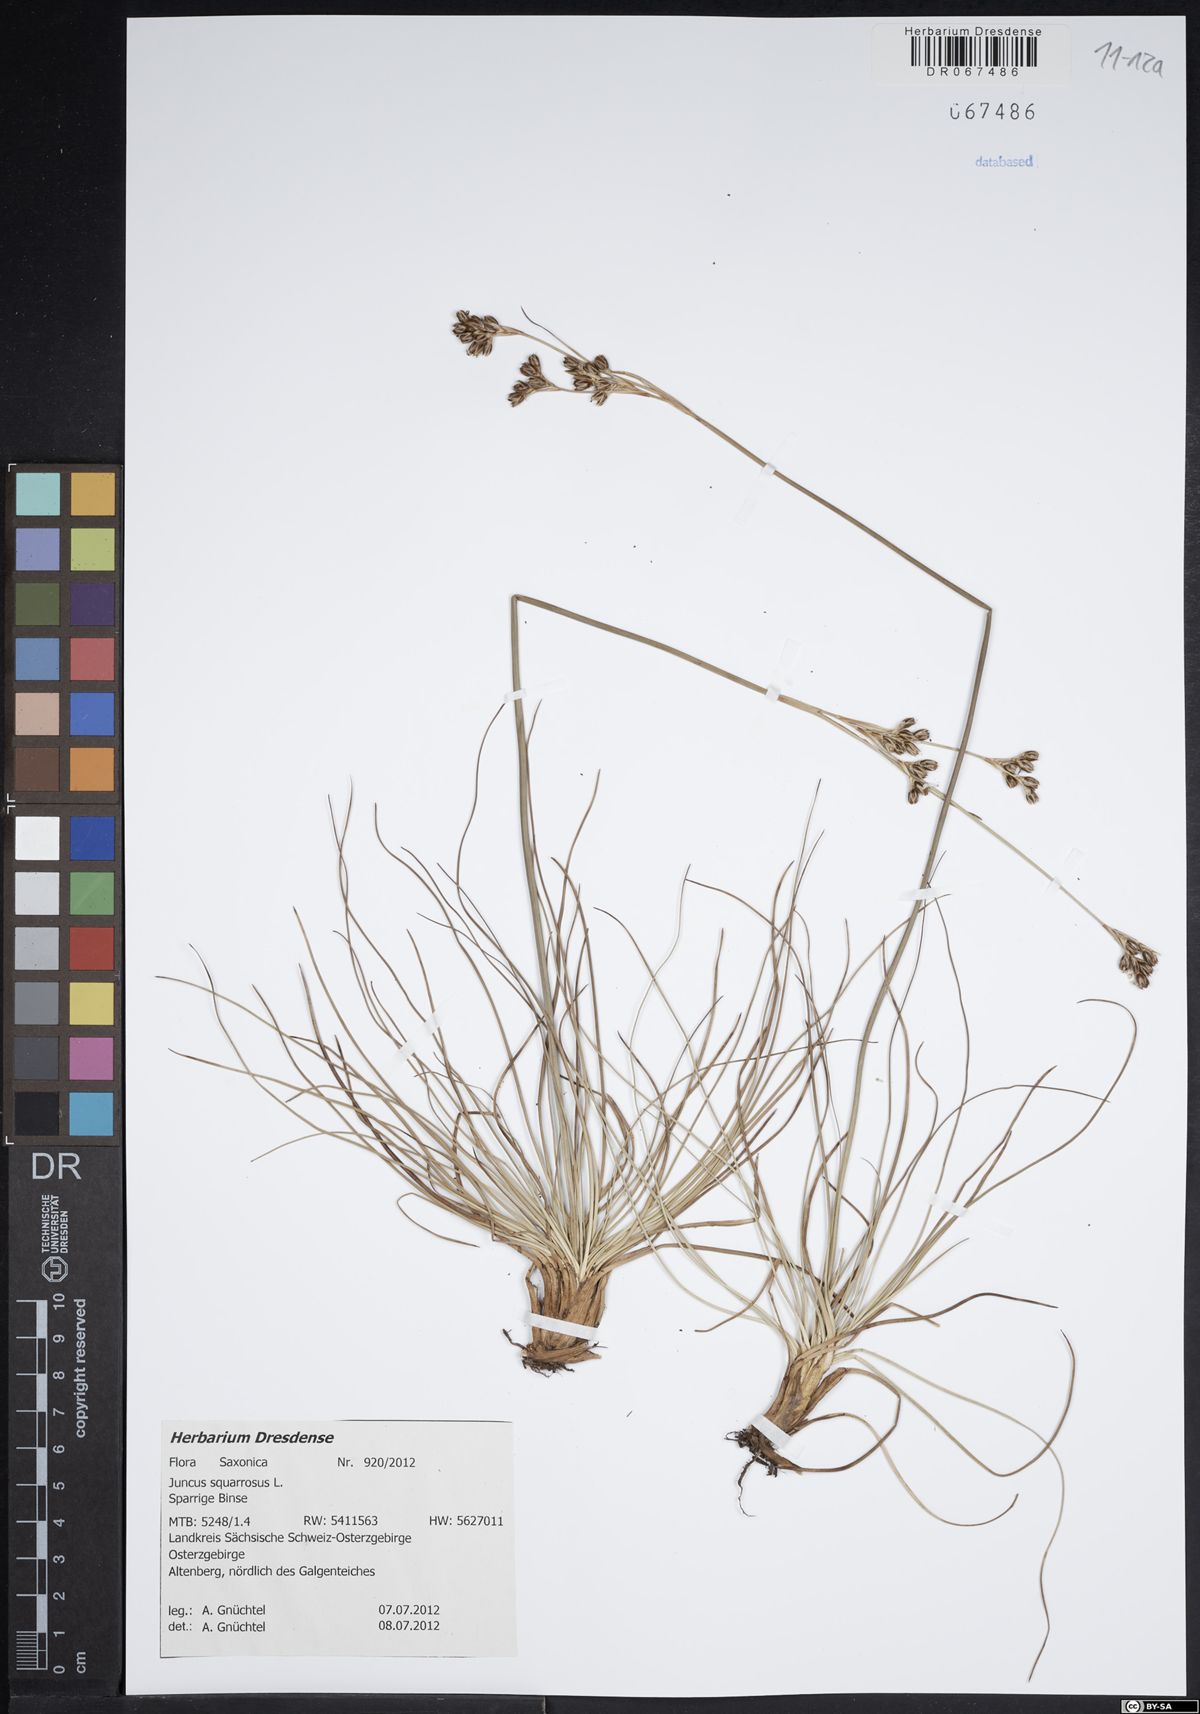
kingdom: Plantae
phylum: Tracheophyta
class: Liliopsida
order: Poales
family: Juncaceae
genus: Juncus
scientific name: Juncus squarrosus
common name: Heath rush
